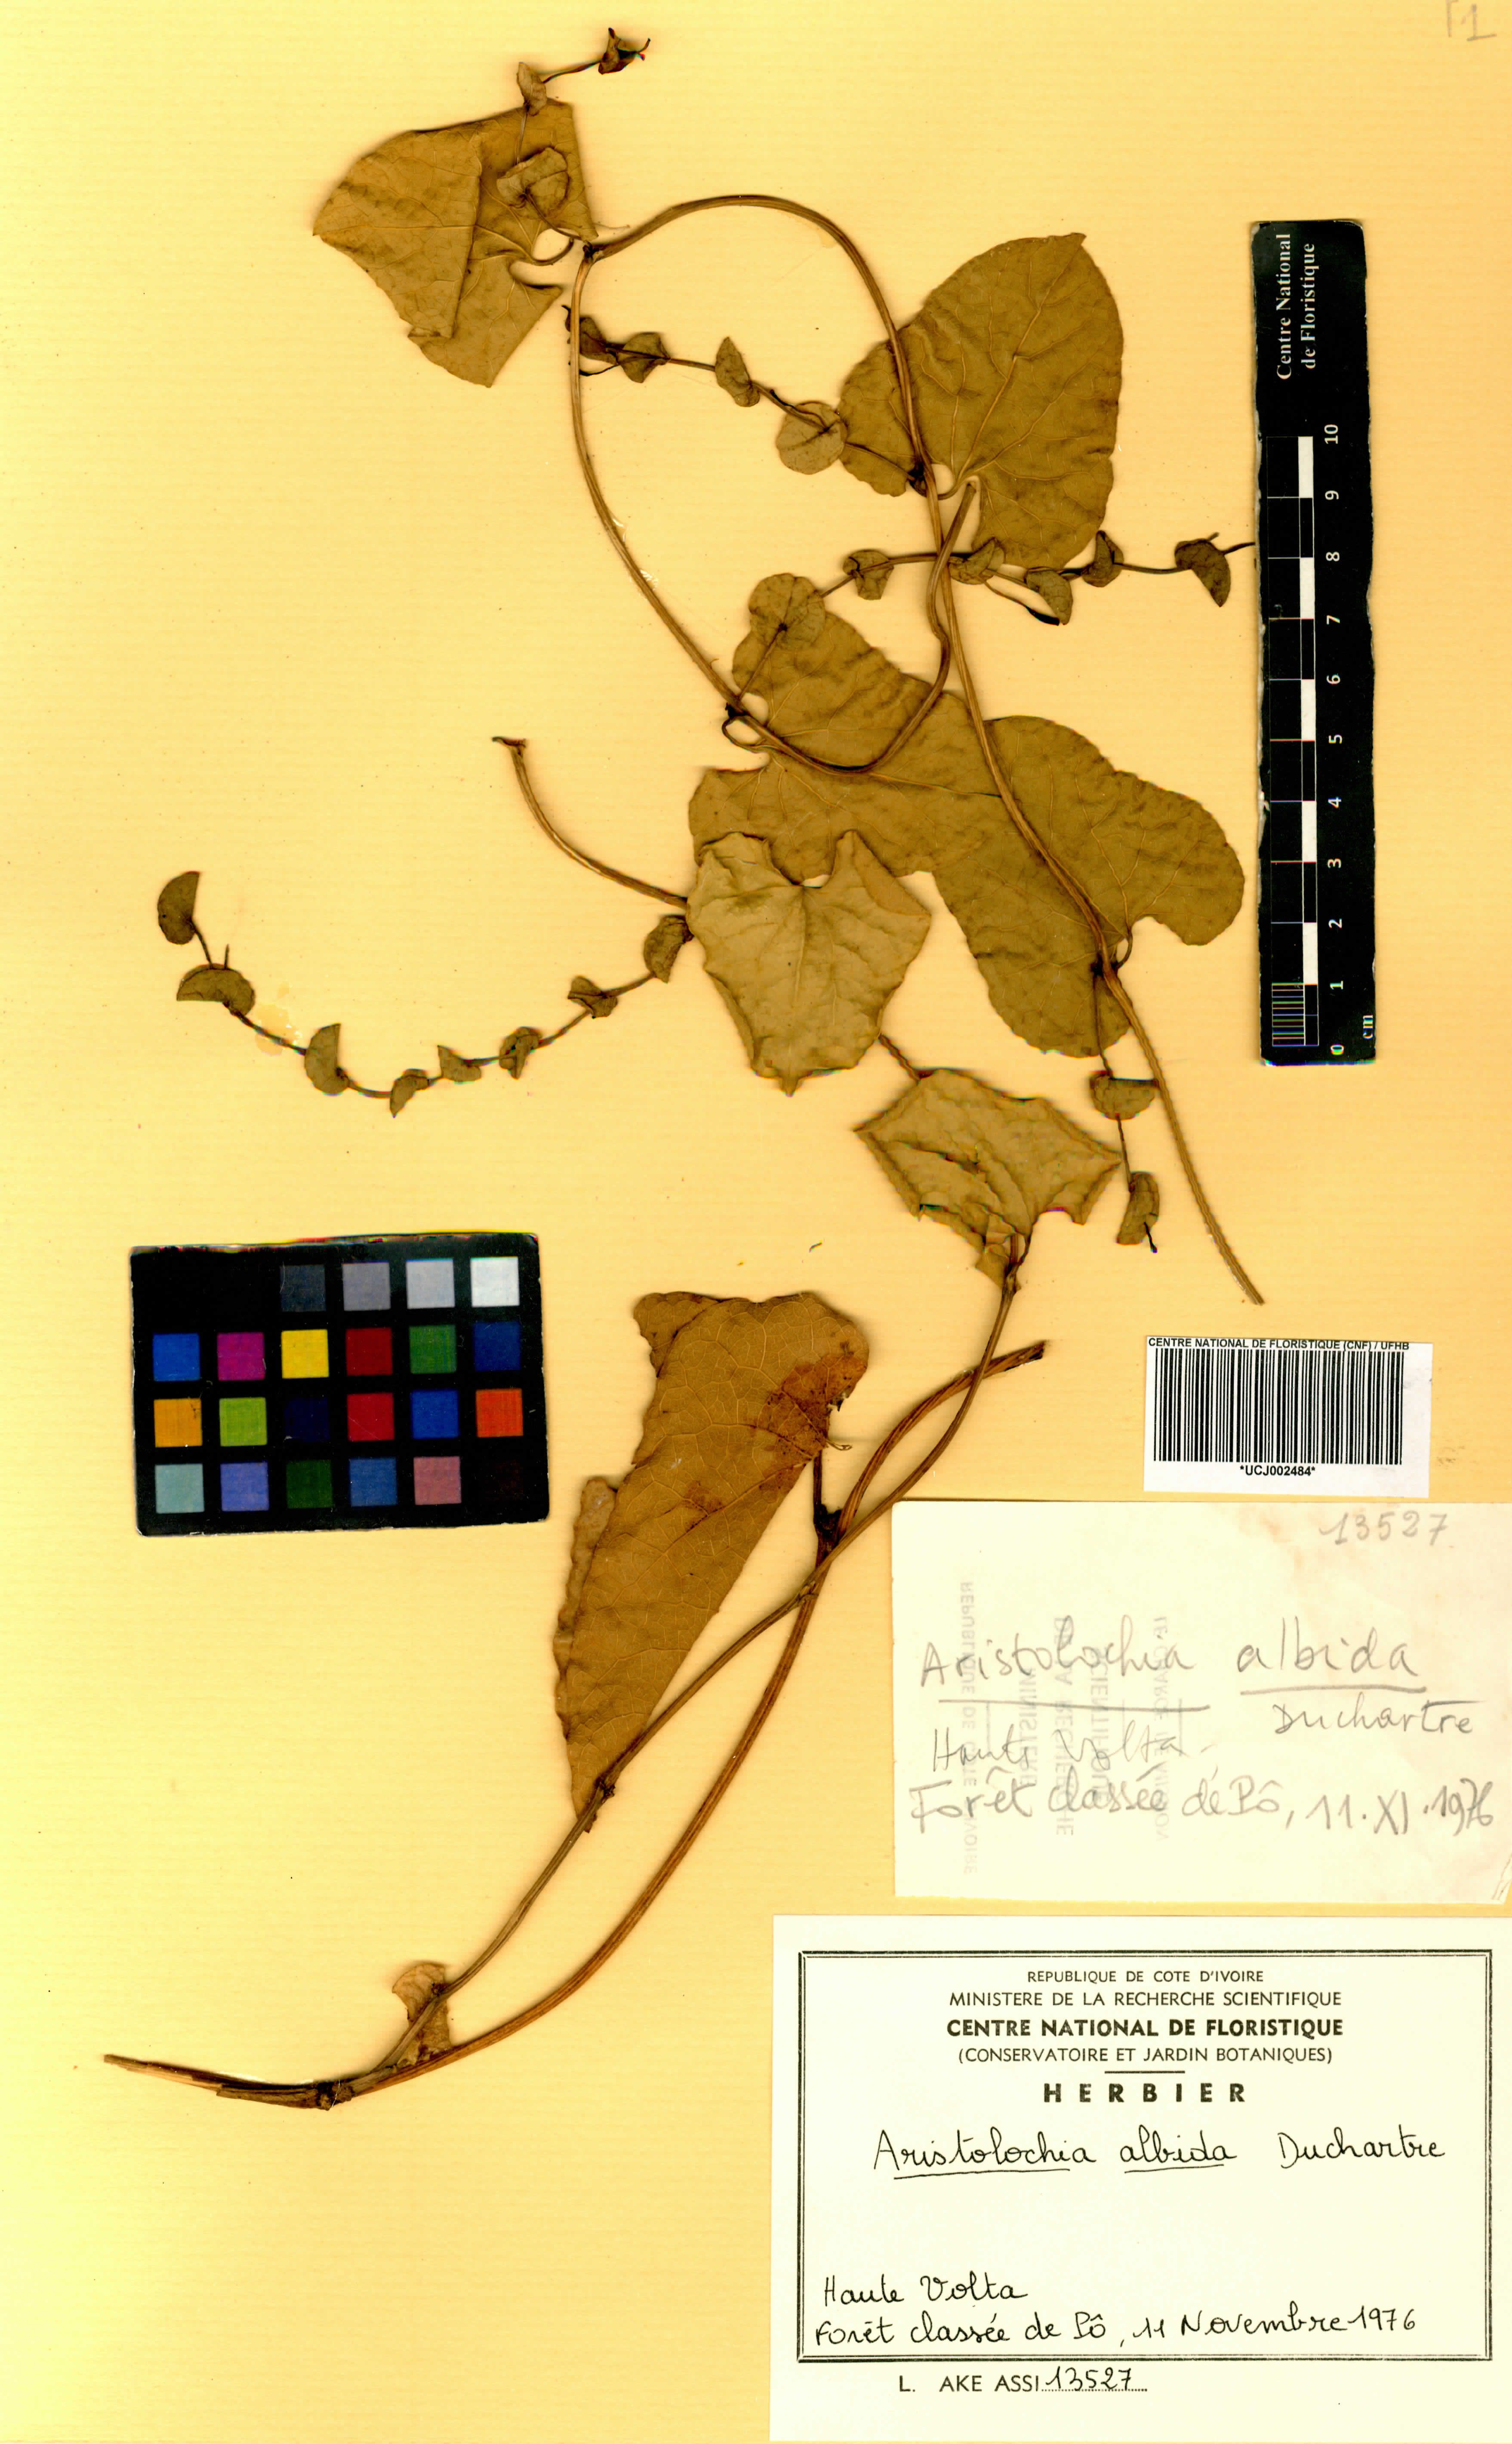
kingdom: Plantae
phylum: Tracheophyta
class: Magnoliopsida
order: Piperales
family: Aristolochiaceae
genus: Aristolochia
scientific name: Aristolochia albida
